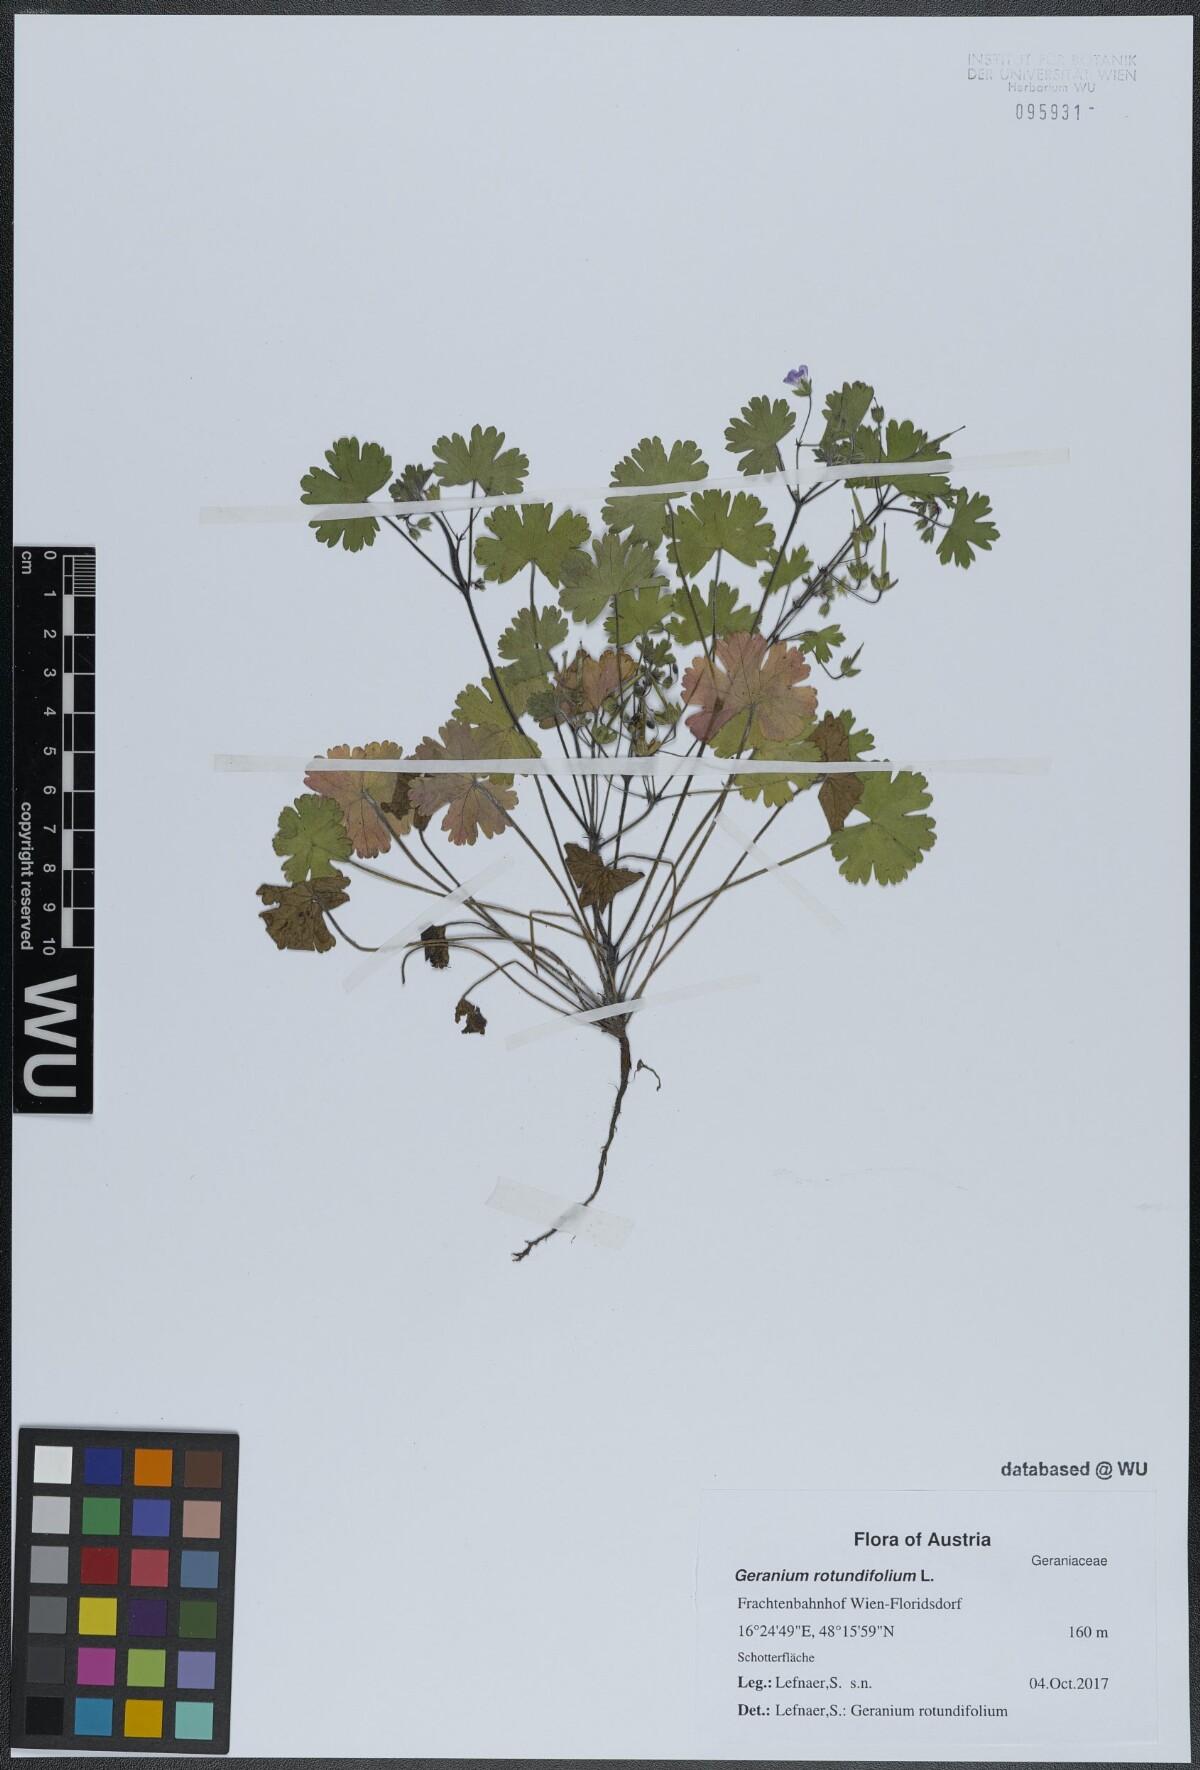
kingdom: Plantae
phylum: Tracheophyta
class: Magnoliopsida
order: Geraniales
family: Geraniaceae
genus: Geranium
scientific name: Geranium rotundifolium
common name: Round-leaved crane's-bill
